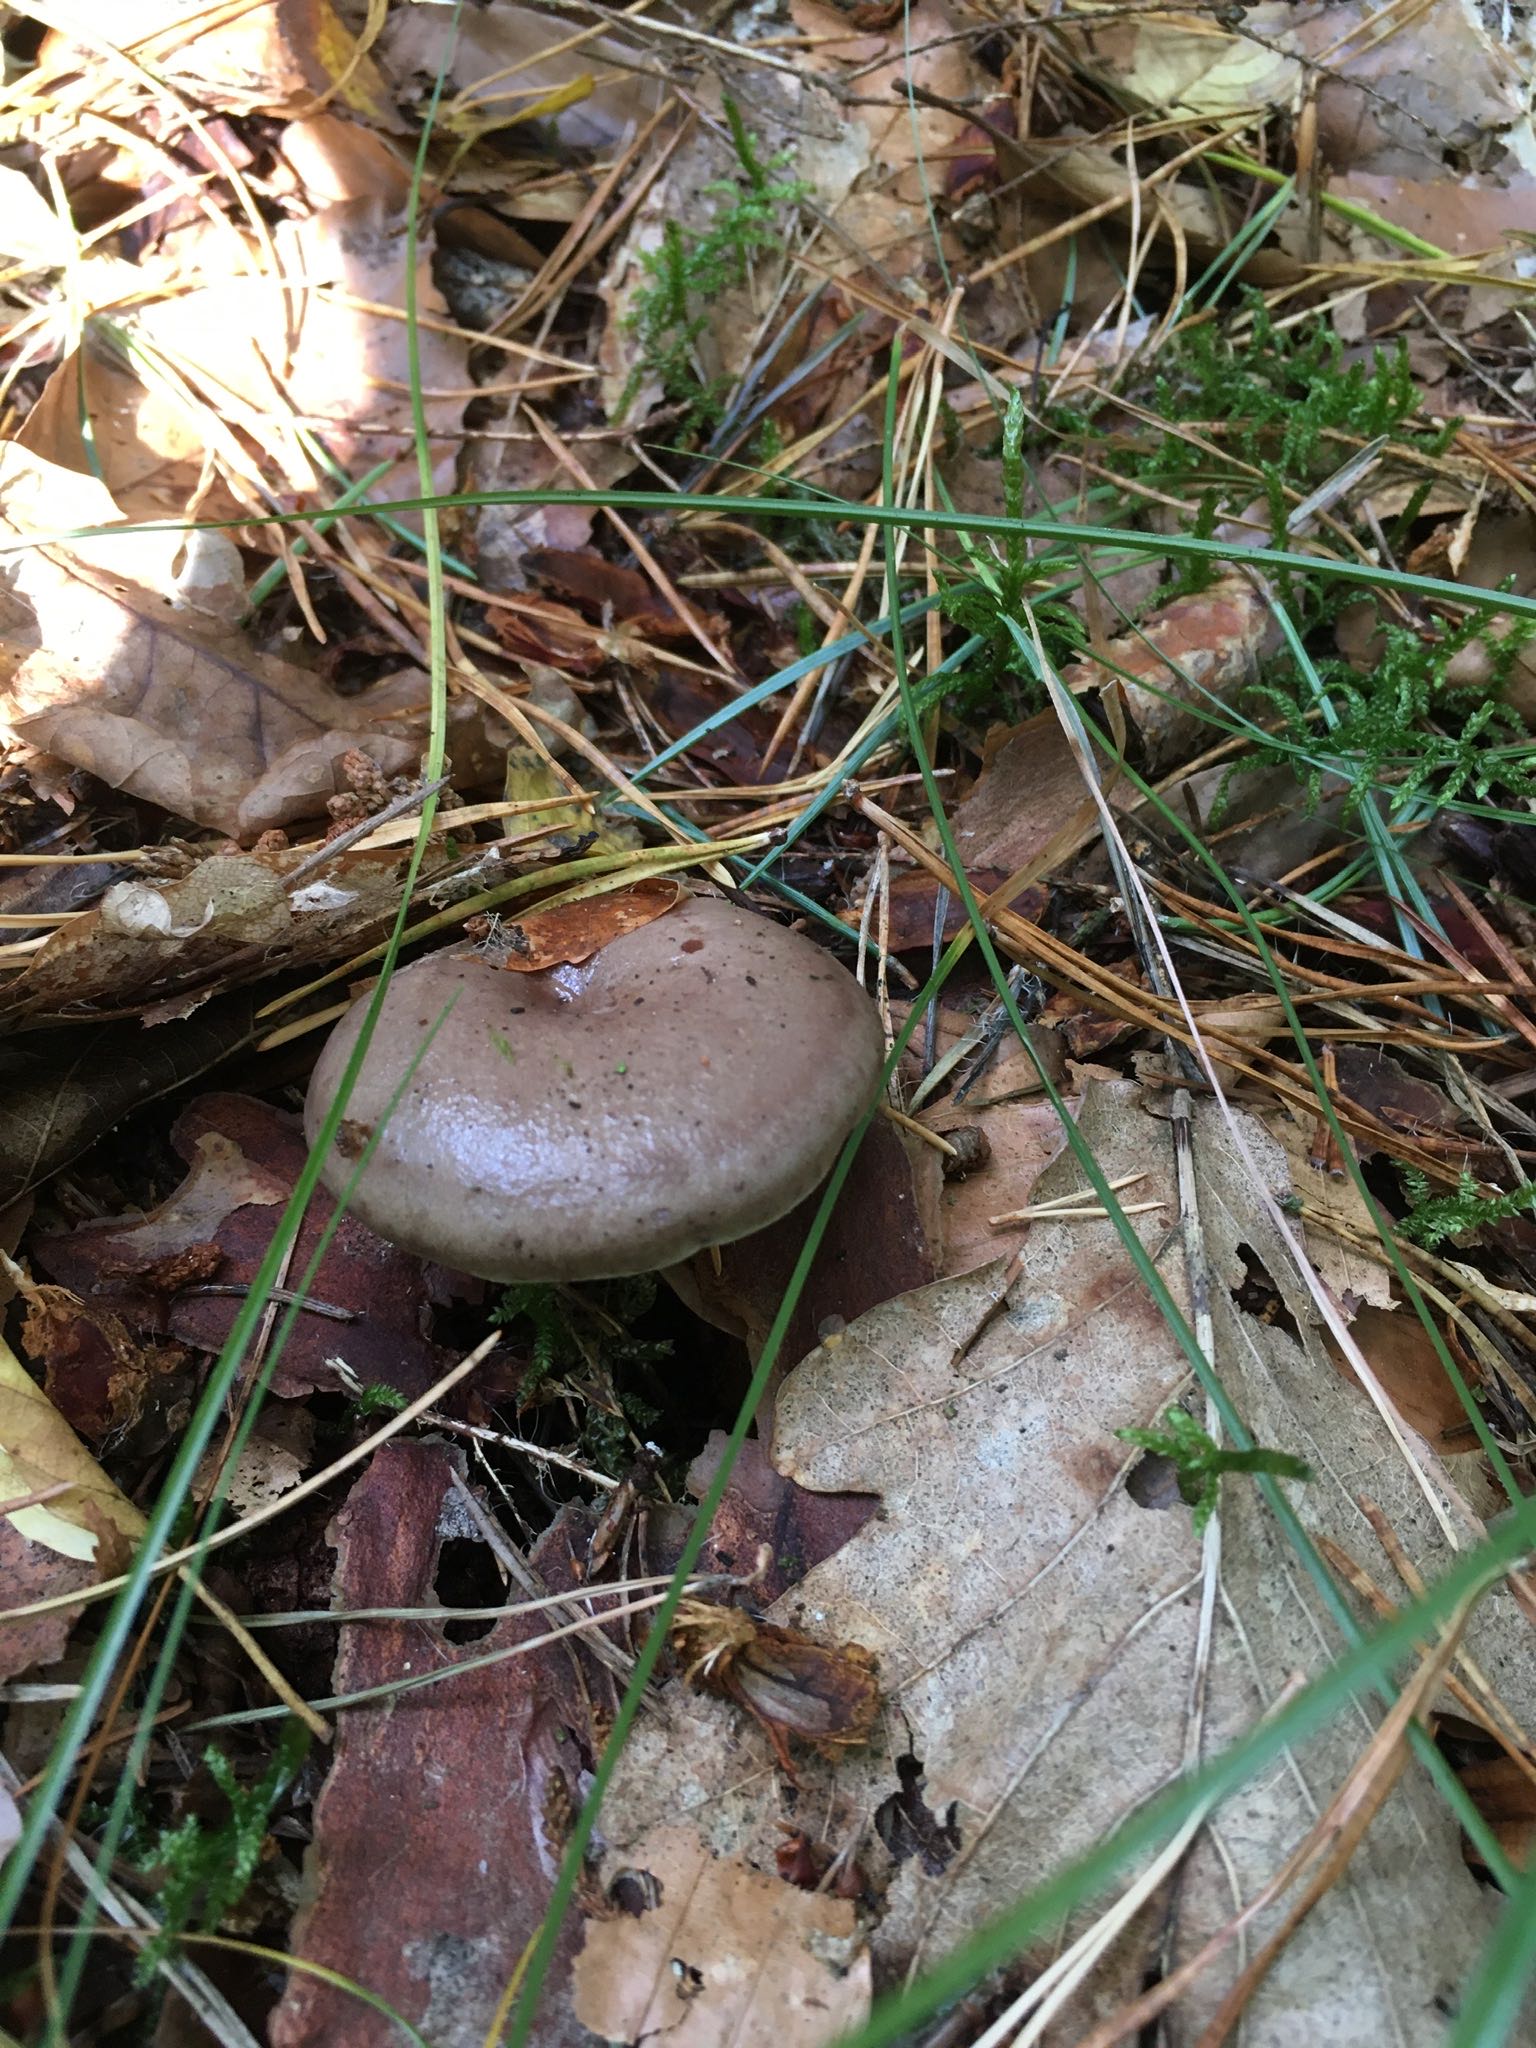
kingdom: Fungi
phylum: Basidiomycota
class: Agaricomycetes
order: Russulales
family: Russulaceae
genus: Lactarius
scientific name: Lactarius blennius
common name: dråbeplettet mælkehat
